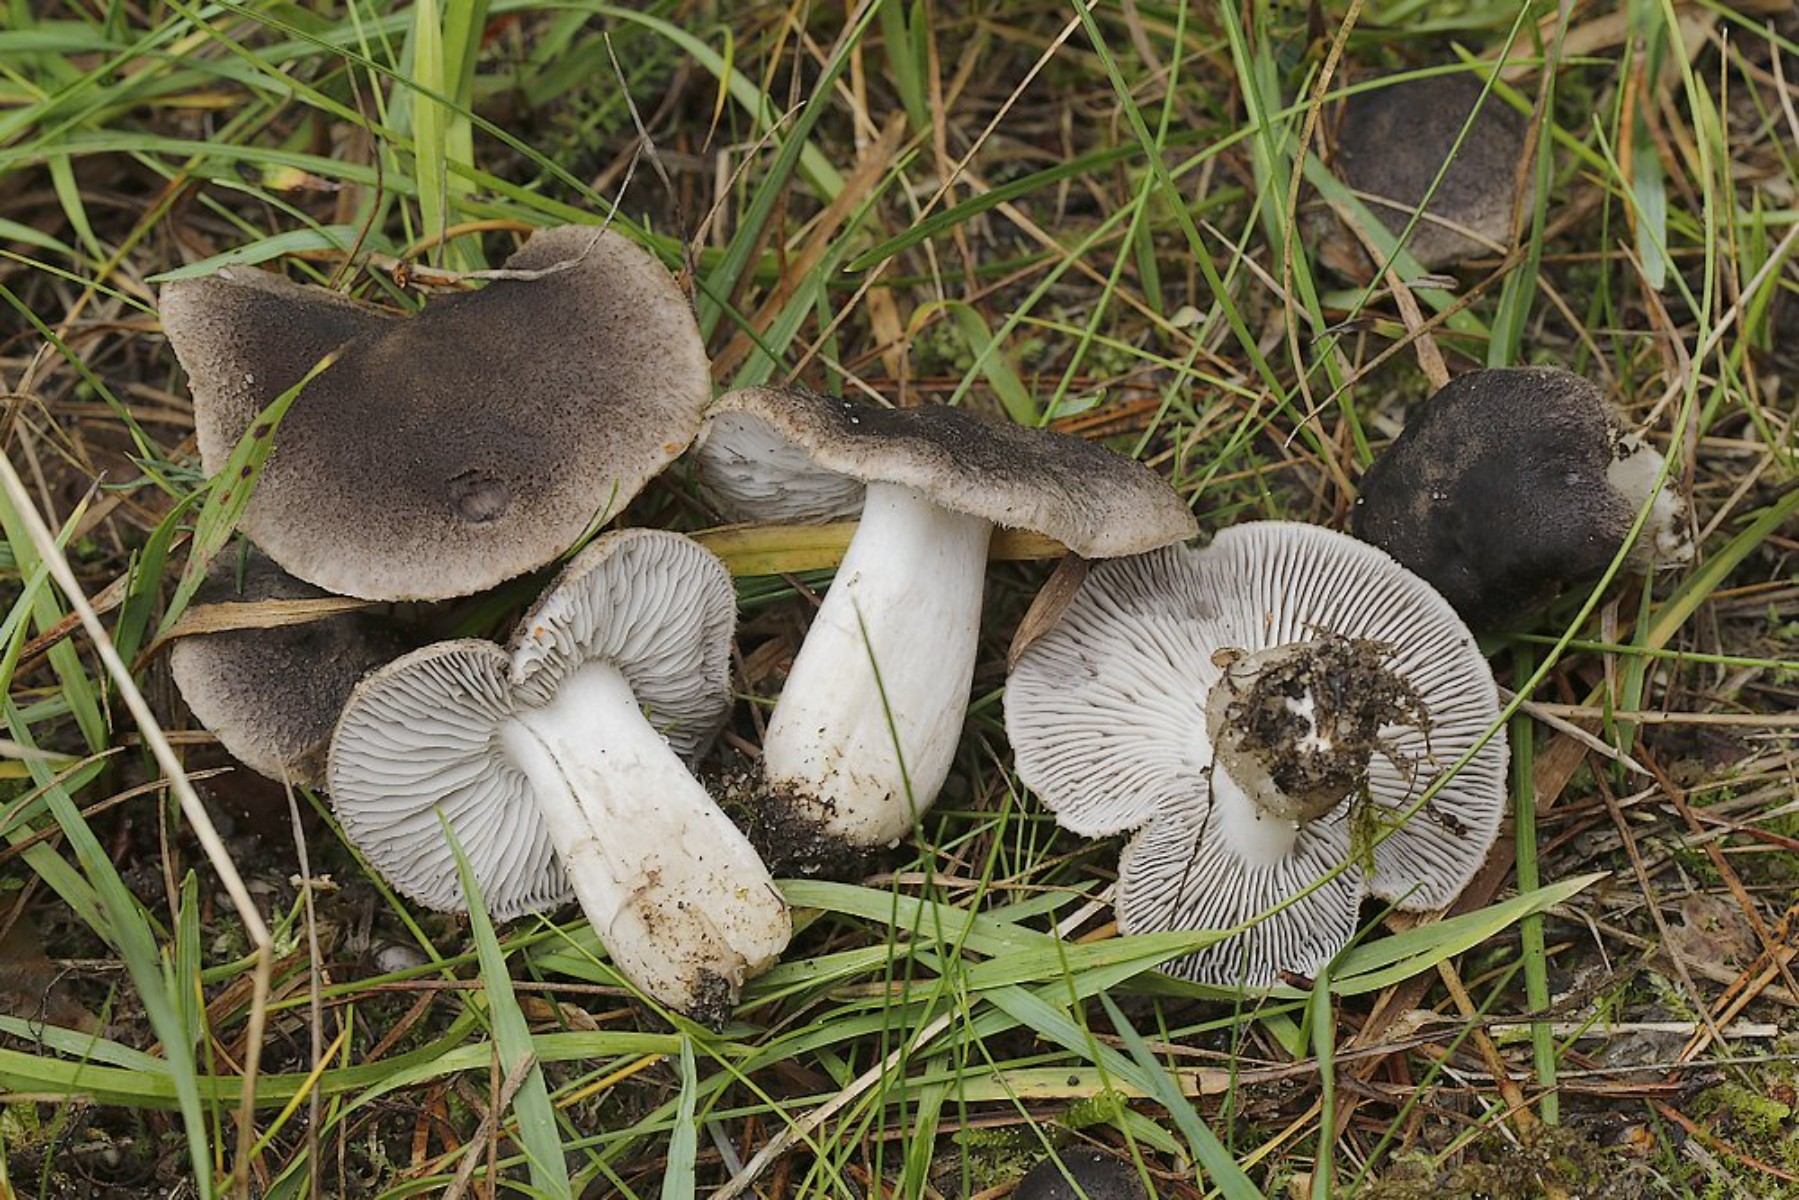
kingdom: Fungi
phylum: Basidiomycota
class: Agaricomycetes
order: Agaricales
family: Tricholomataceae
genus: Tricholoma
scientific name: Tricholoma terreum
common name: jordfarvet ridderhat
